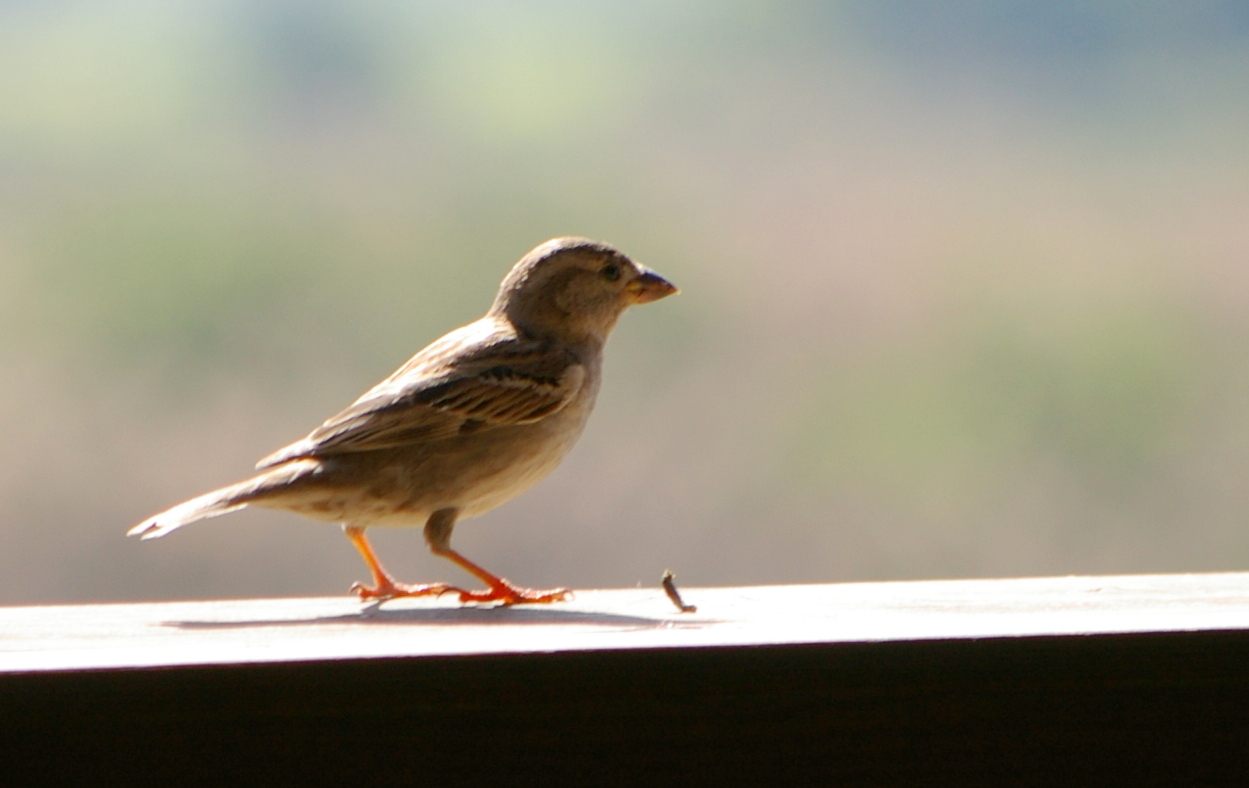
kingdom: Animalia
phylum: Chordata
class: Aves
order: Passeriformes
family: Passeridae
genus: Passer
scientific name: Passer domesticus
